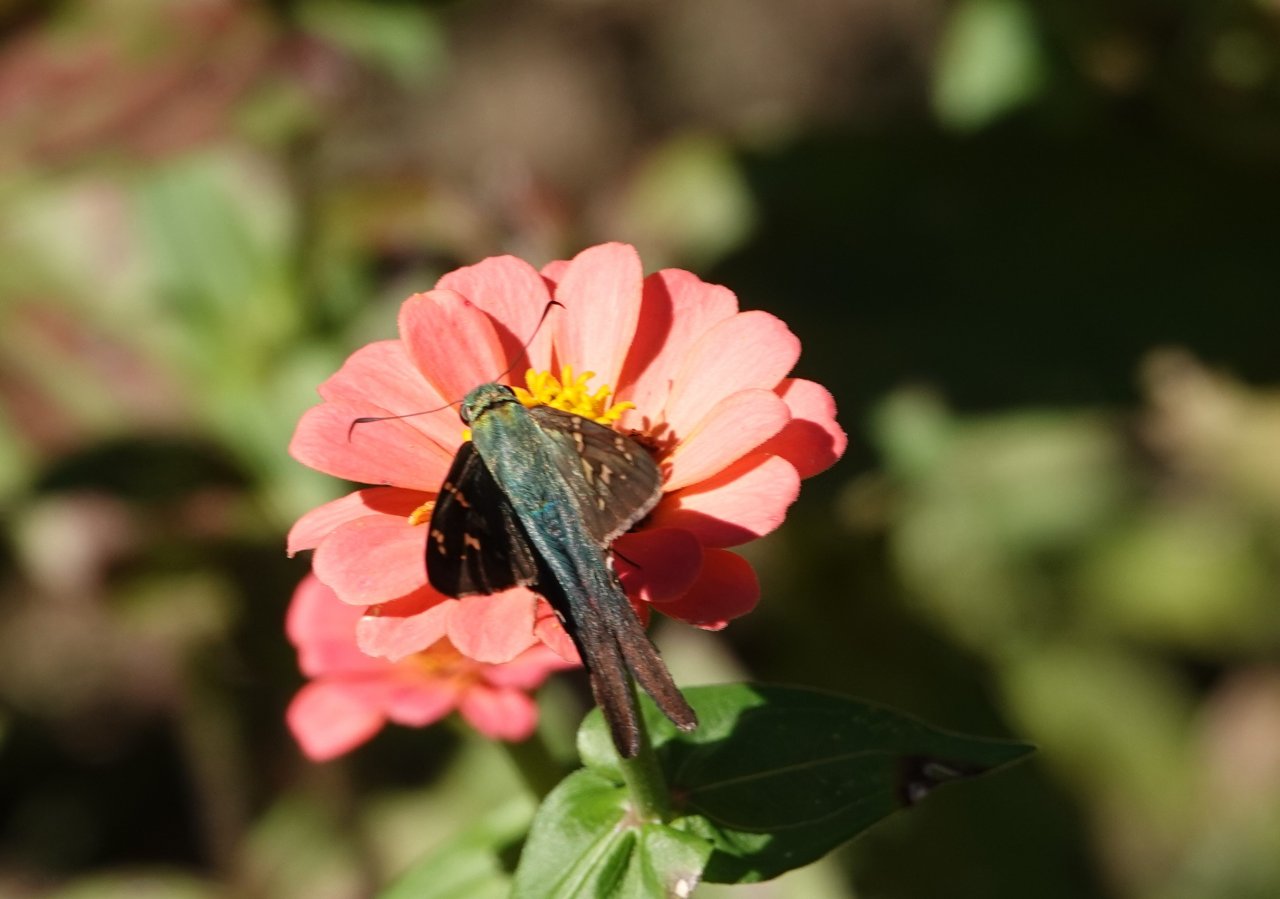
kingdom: Animalia
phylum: Arthropoda
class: Insecta
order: Lepidoptera
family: Hesperiidae
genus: Urbanus
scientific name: Urbanus proteus
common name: Long-tailed Skipper
